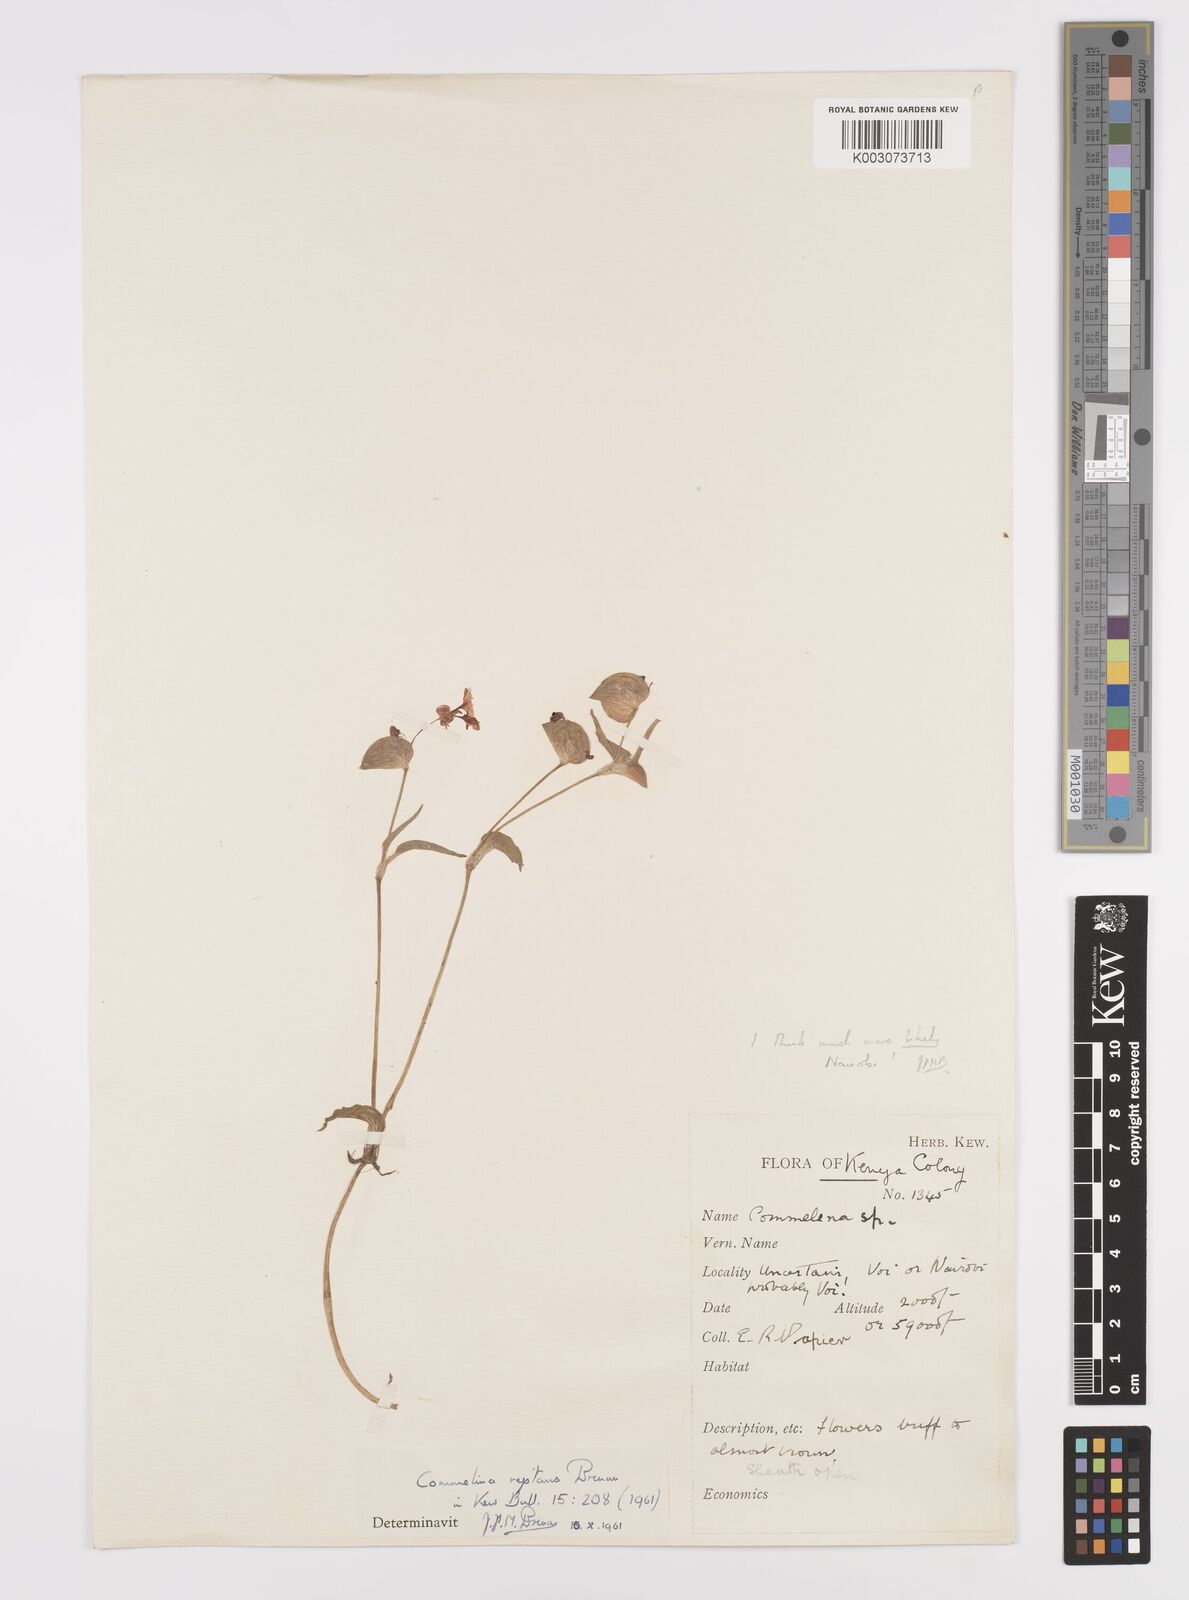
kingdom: Plantae
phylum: Tracheophyta
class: Liliopsida
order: Commelinales
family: Commelinaceae
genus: Commelina
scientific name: Commelina reptans
